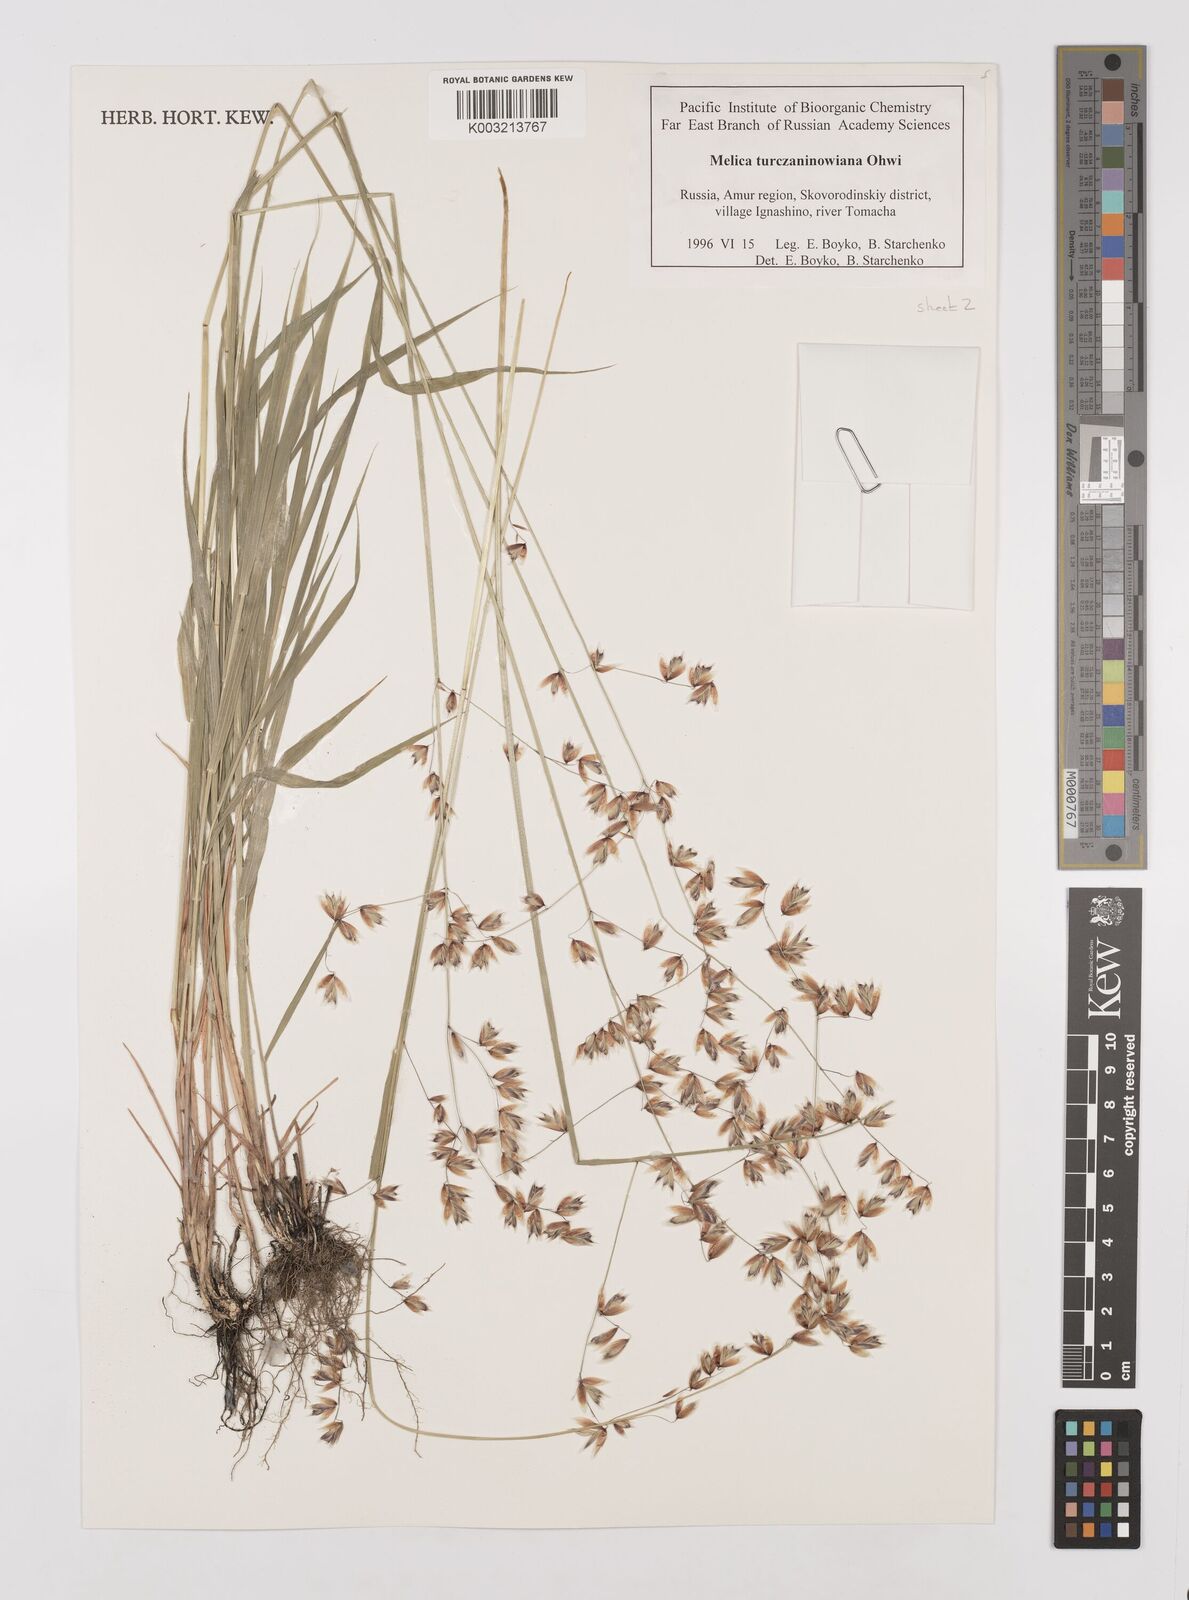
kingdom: Plantae
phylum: Tracheophyta
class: Liliopsida
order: Poales
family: Poaceae
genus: Melica
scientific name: Melica turczaninowiana
